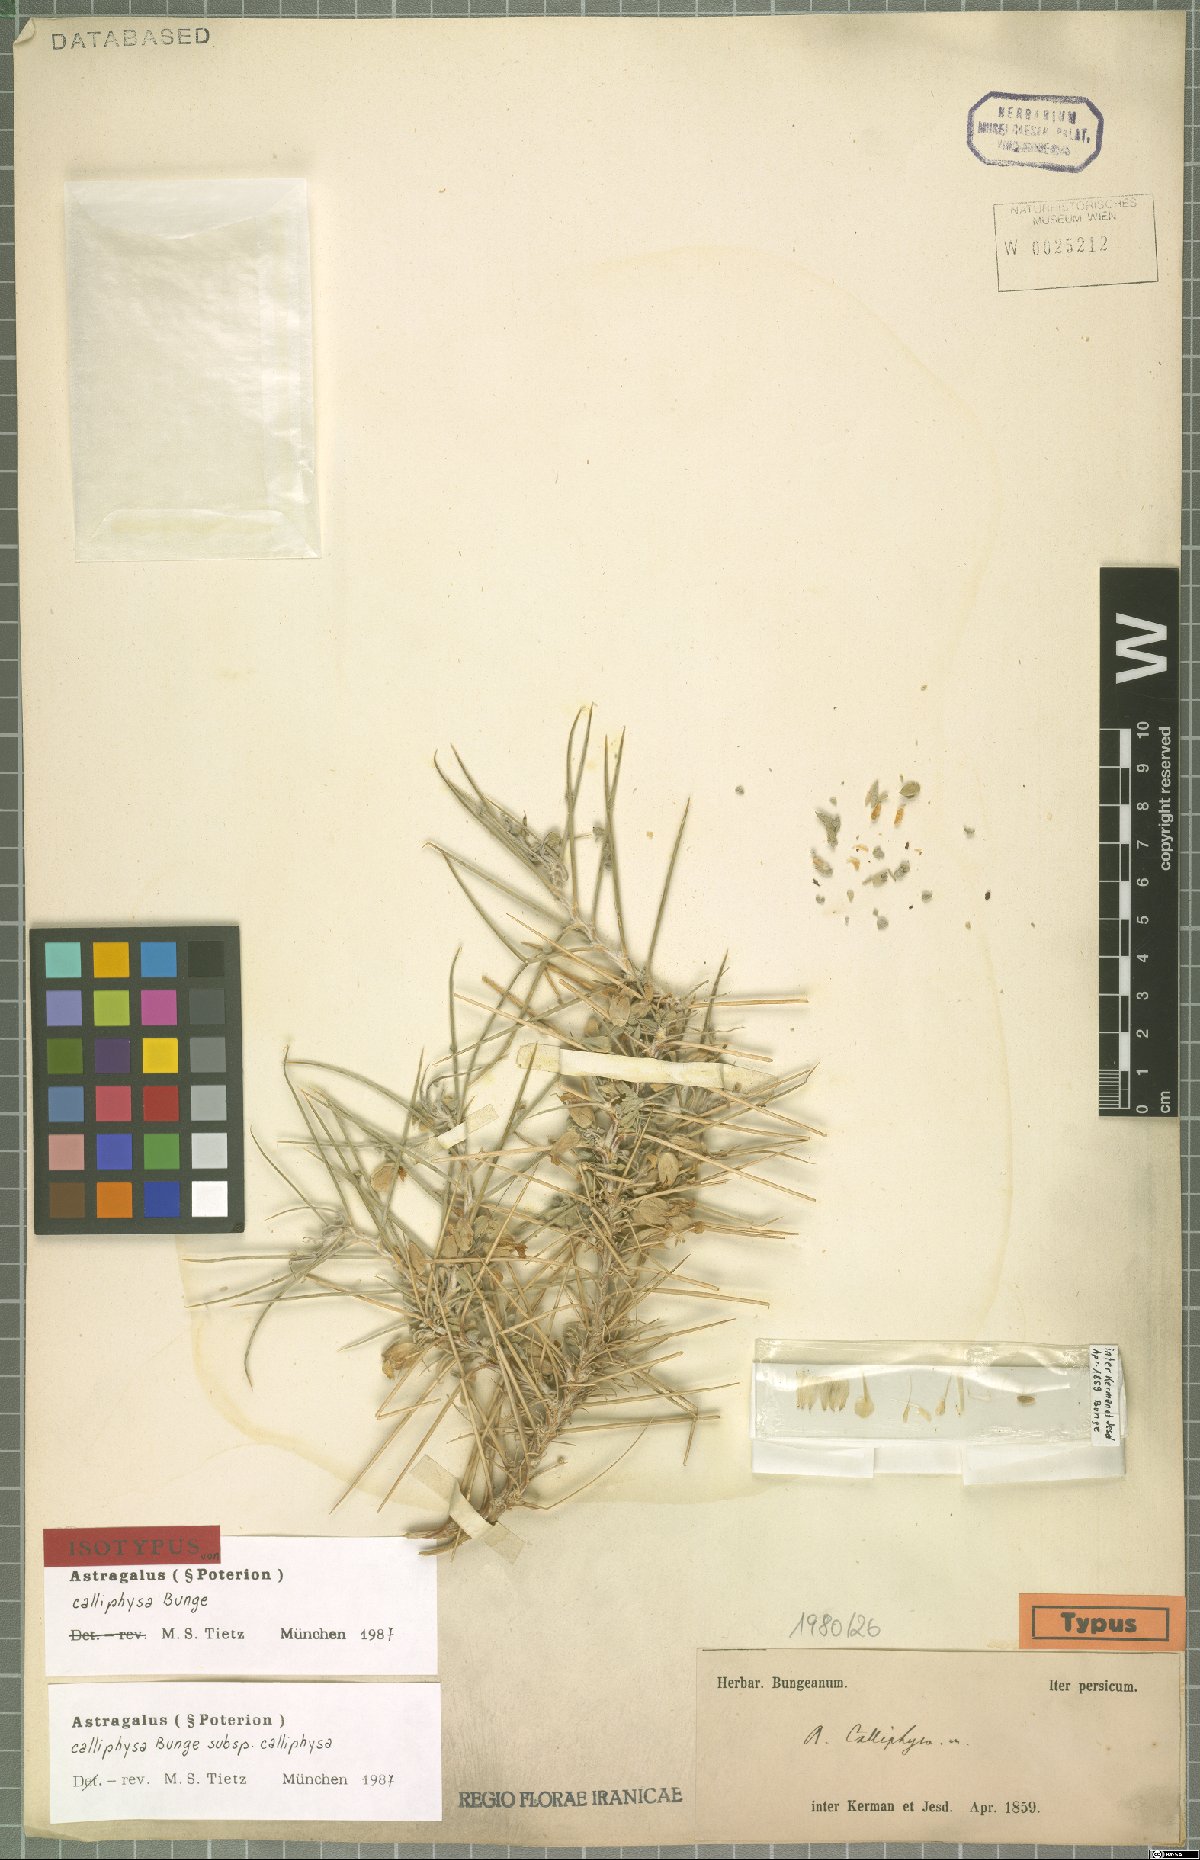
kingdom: Plantae
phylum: Tracheophyta
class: Magnoliopsida
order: Fabales
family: Fabaceae
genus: Astragalus
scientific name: Astragalus calliphysa
